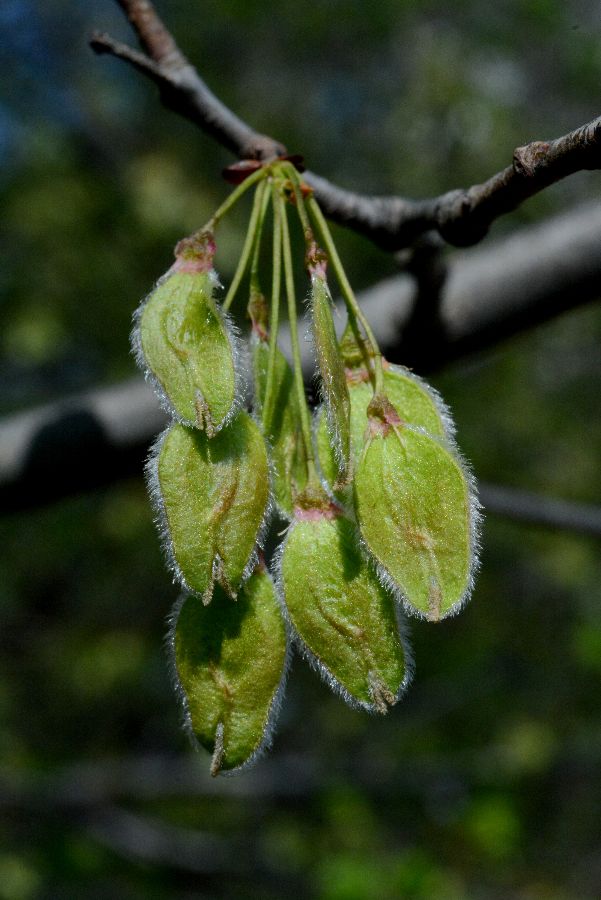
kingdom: Plantae
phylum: Tracheophyta
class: Magnoliopsida
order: Rosales
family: Ulmaceae
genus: Ulmus
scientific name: Ulmus laevis
